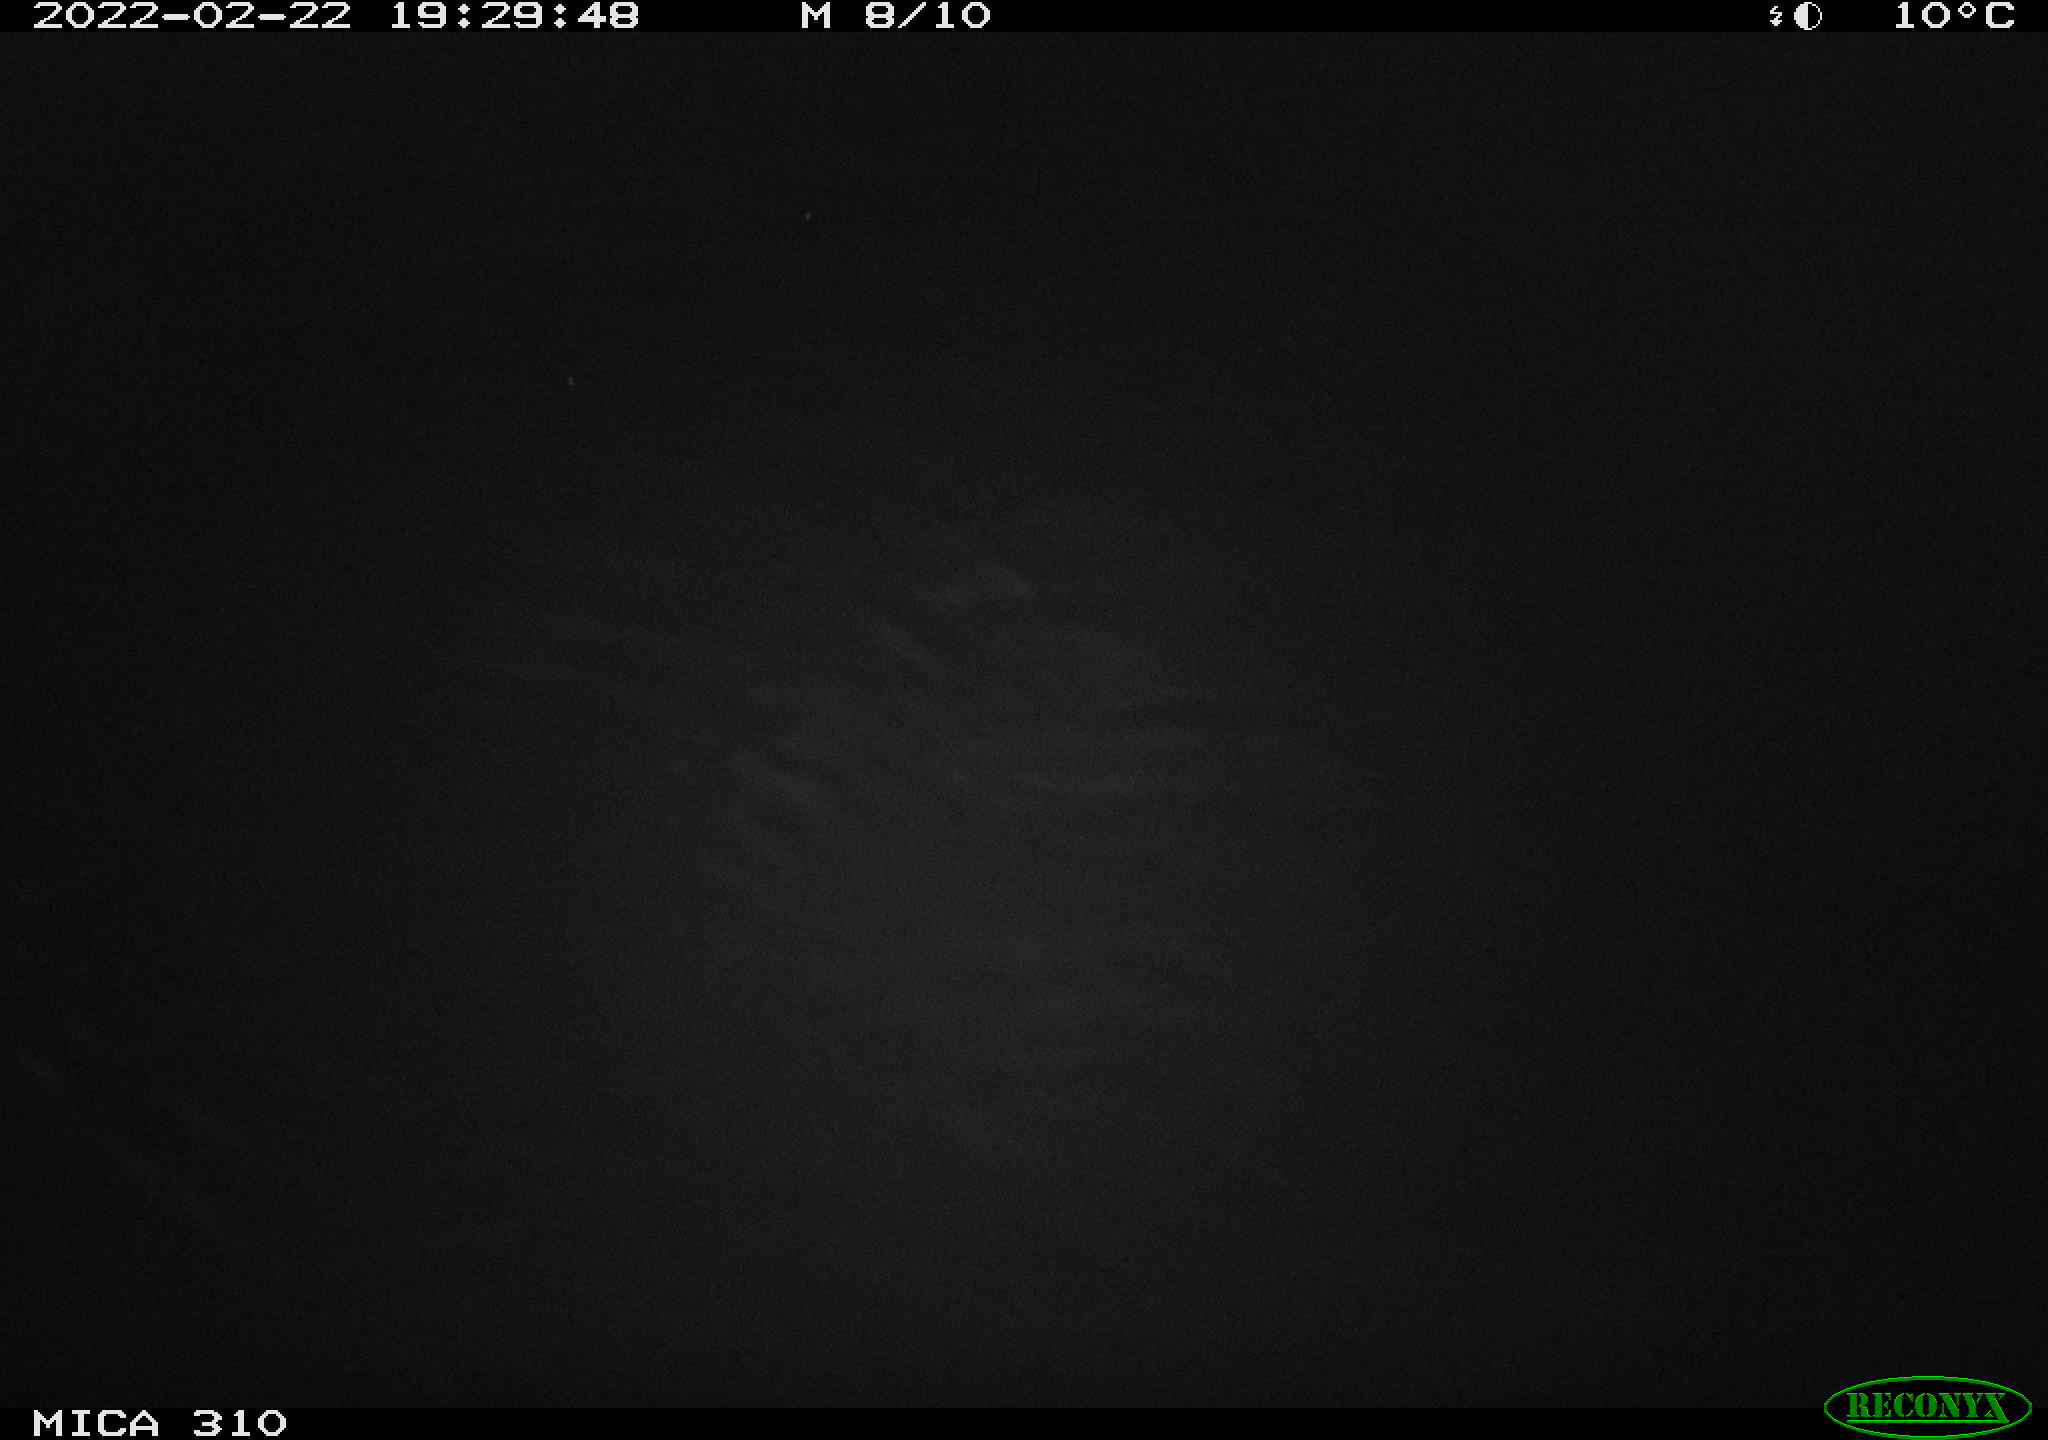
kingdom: Animalia
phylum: Chordata
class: Mammalia
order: Rodentia
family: Cricetidae
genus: Ondatra
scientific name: Ondatra zibethicus
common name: Muskrat
